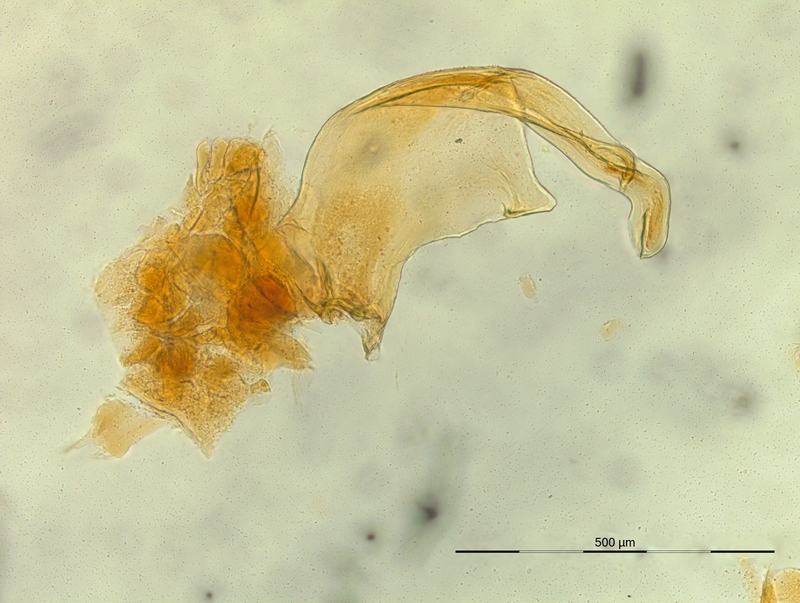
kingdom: Animalia
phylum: Arthropoda
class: Diplopoda
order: Chordeumatida
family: Craspedosomatidae
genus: Pterygophorosoma
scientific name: Pterygophorosoma alticolum
